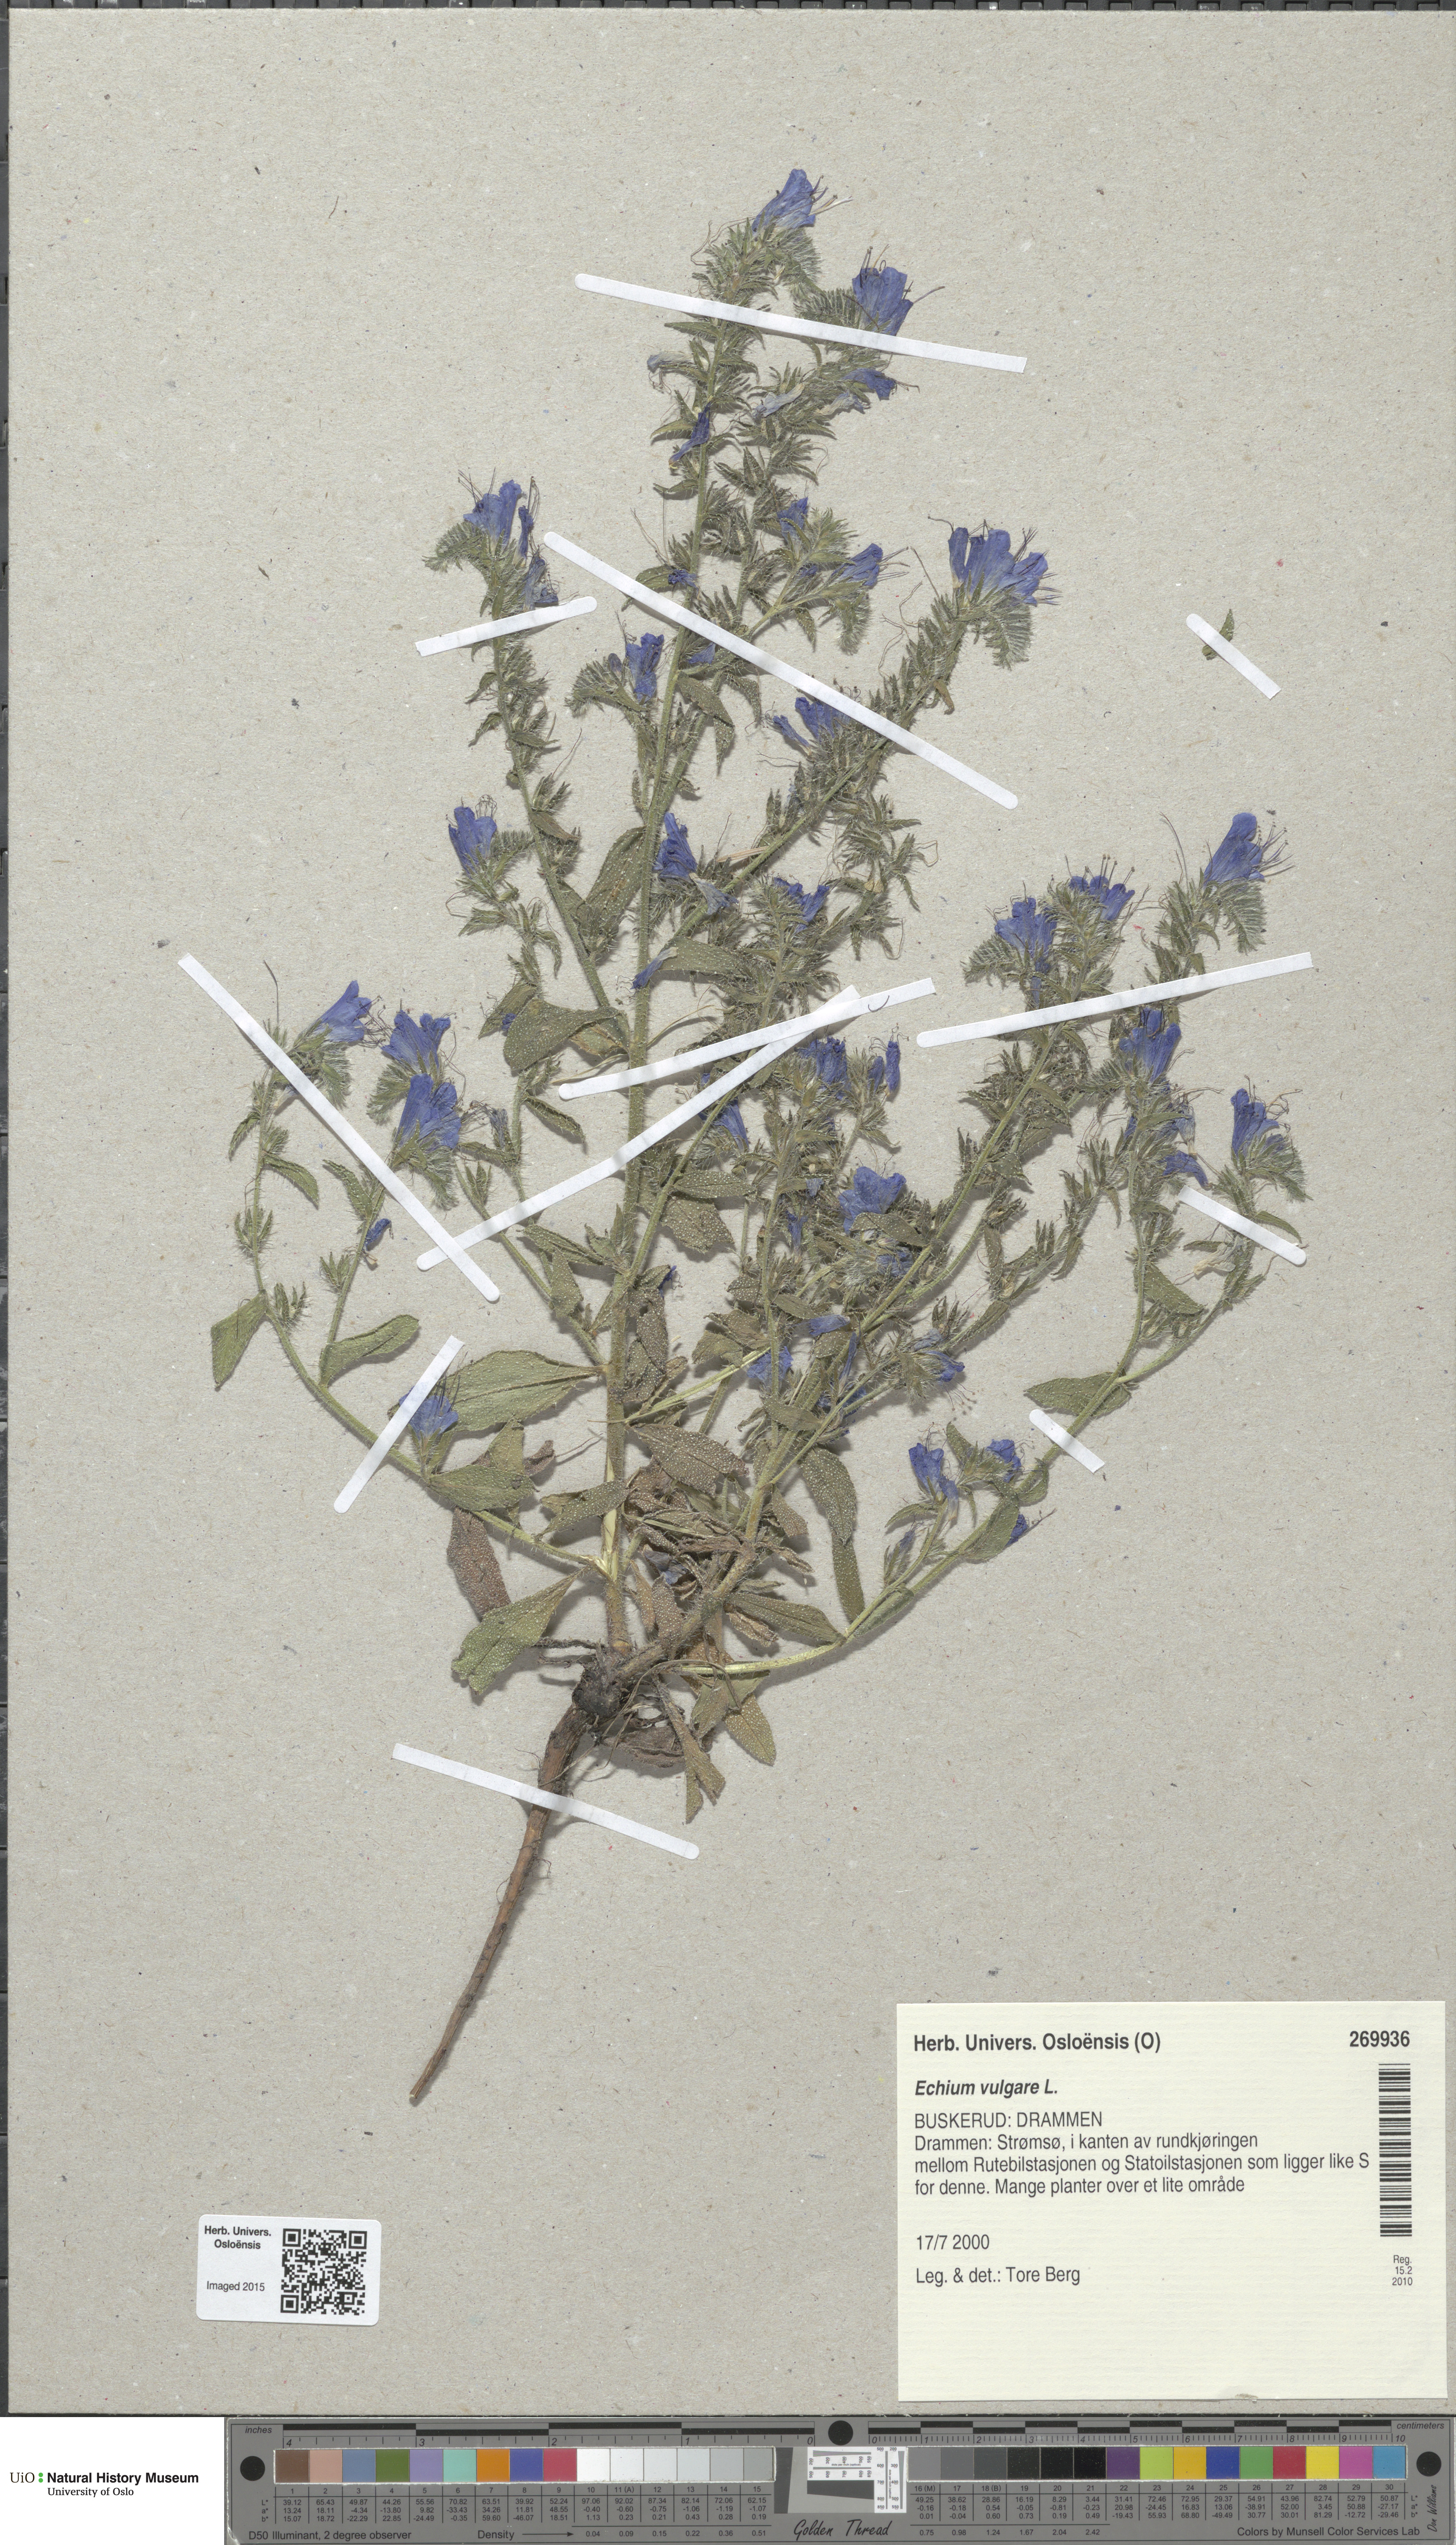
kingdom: Plantae
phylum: Tracheophyta
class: Magnoliopsida
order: Boraginales
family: Boraginaceae
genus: Echium
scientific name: Echium vulgare
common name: Common viper's bugloss
